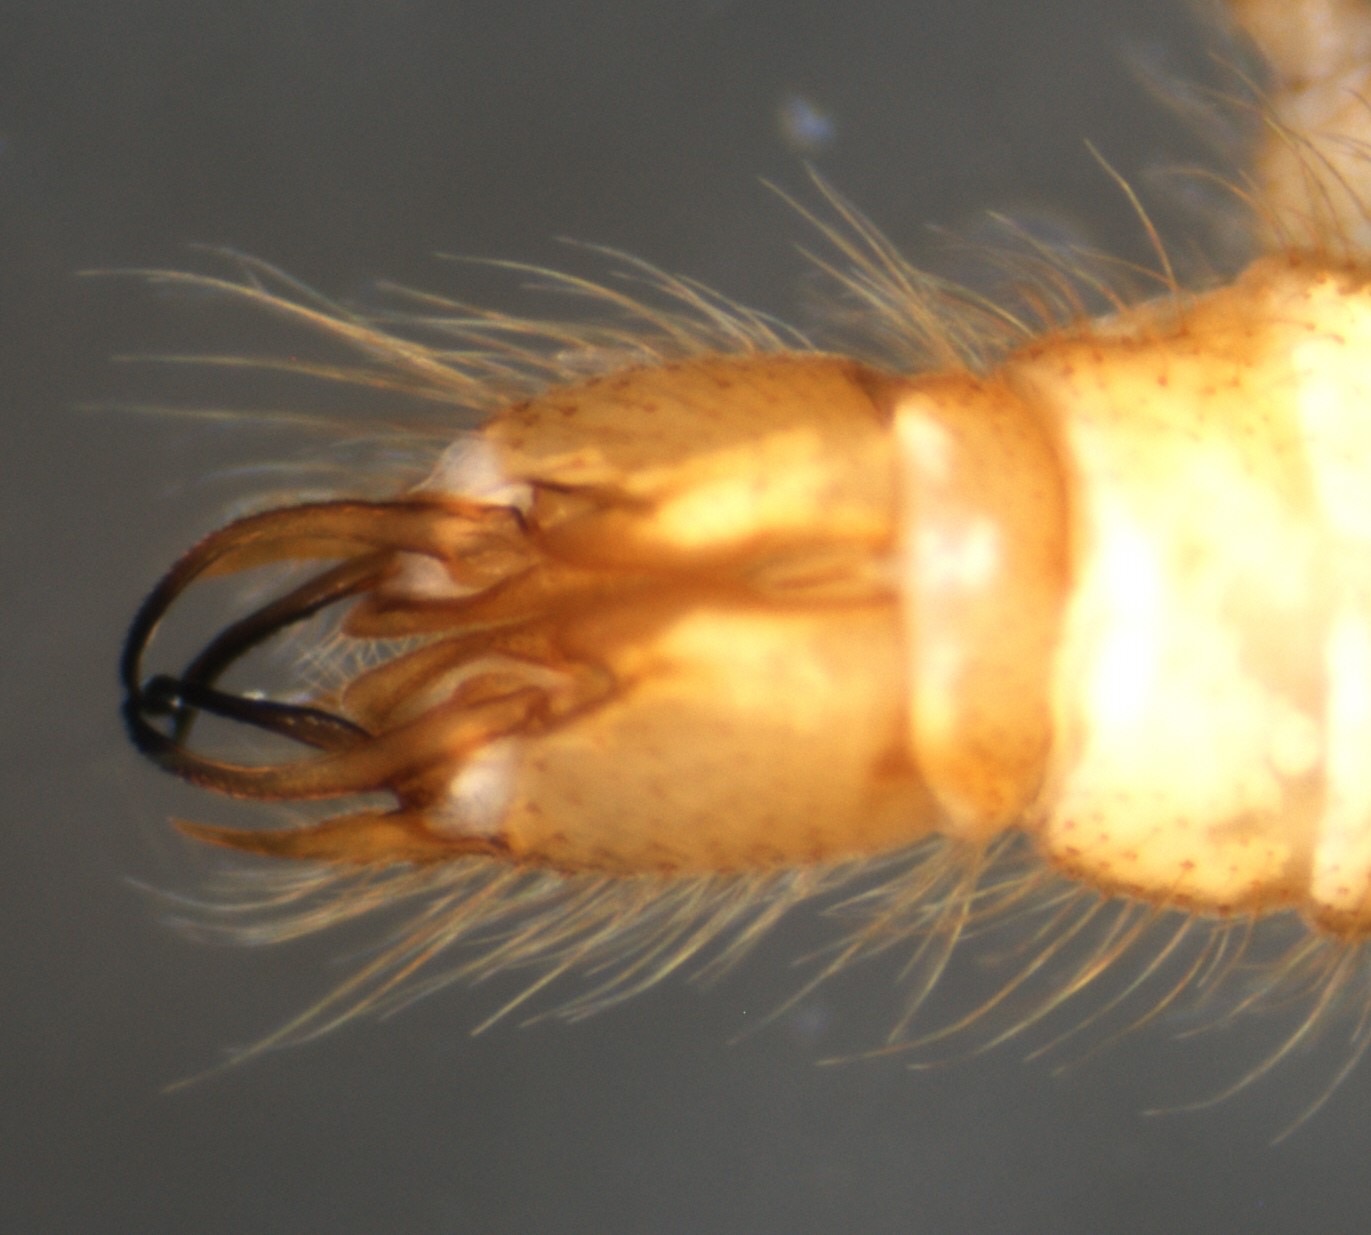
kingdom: Animalia
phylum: Arthropoda
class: Insecta
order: Diptera
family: Limoniidae
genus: Molophilus
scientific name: Molophilus appendiculatus
